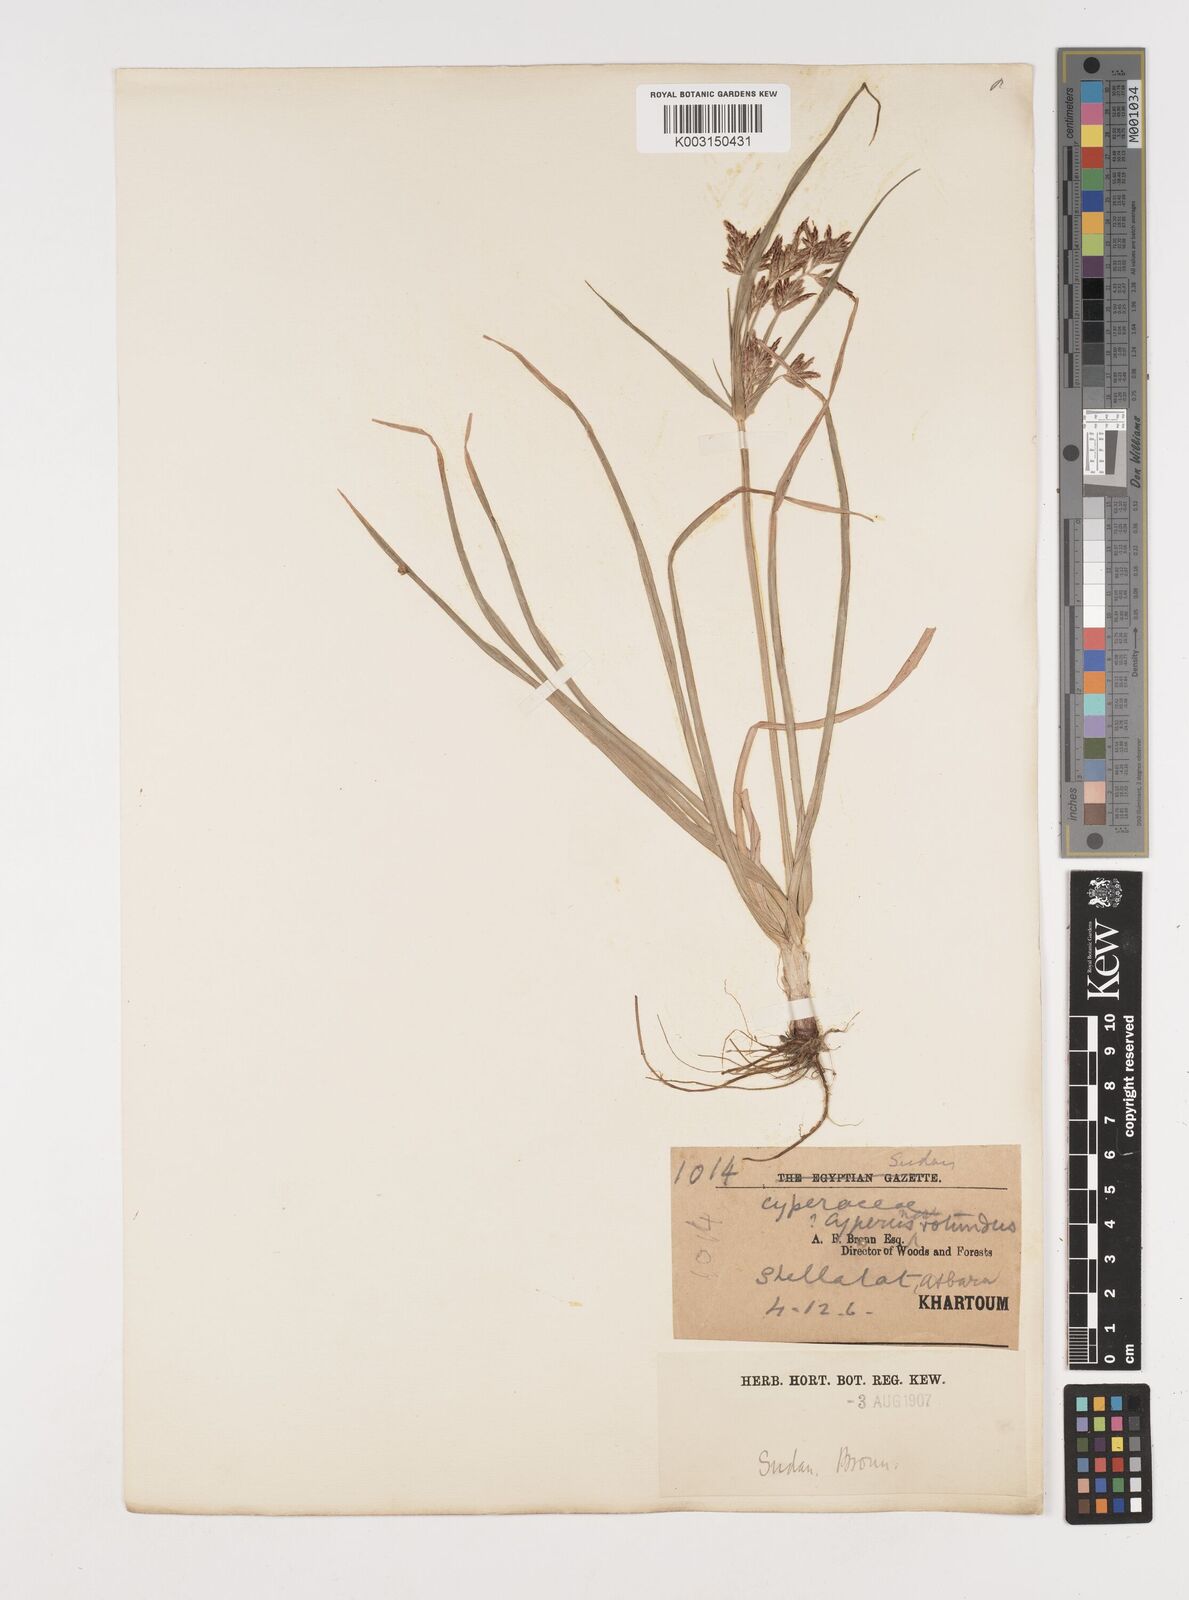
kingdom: Plantae
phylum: Tracheophyta
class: Liliopsida
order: Poales
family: Cyperaceae
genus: Cyperus
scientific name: Cyperus rotundus
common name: Nutgrass
